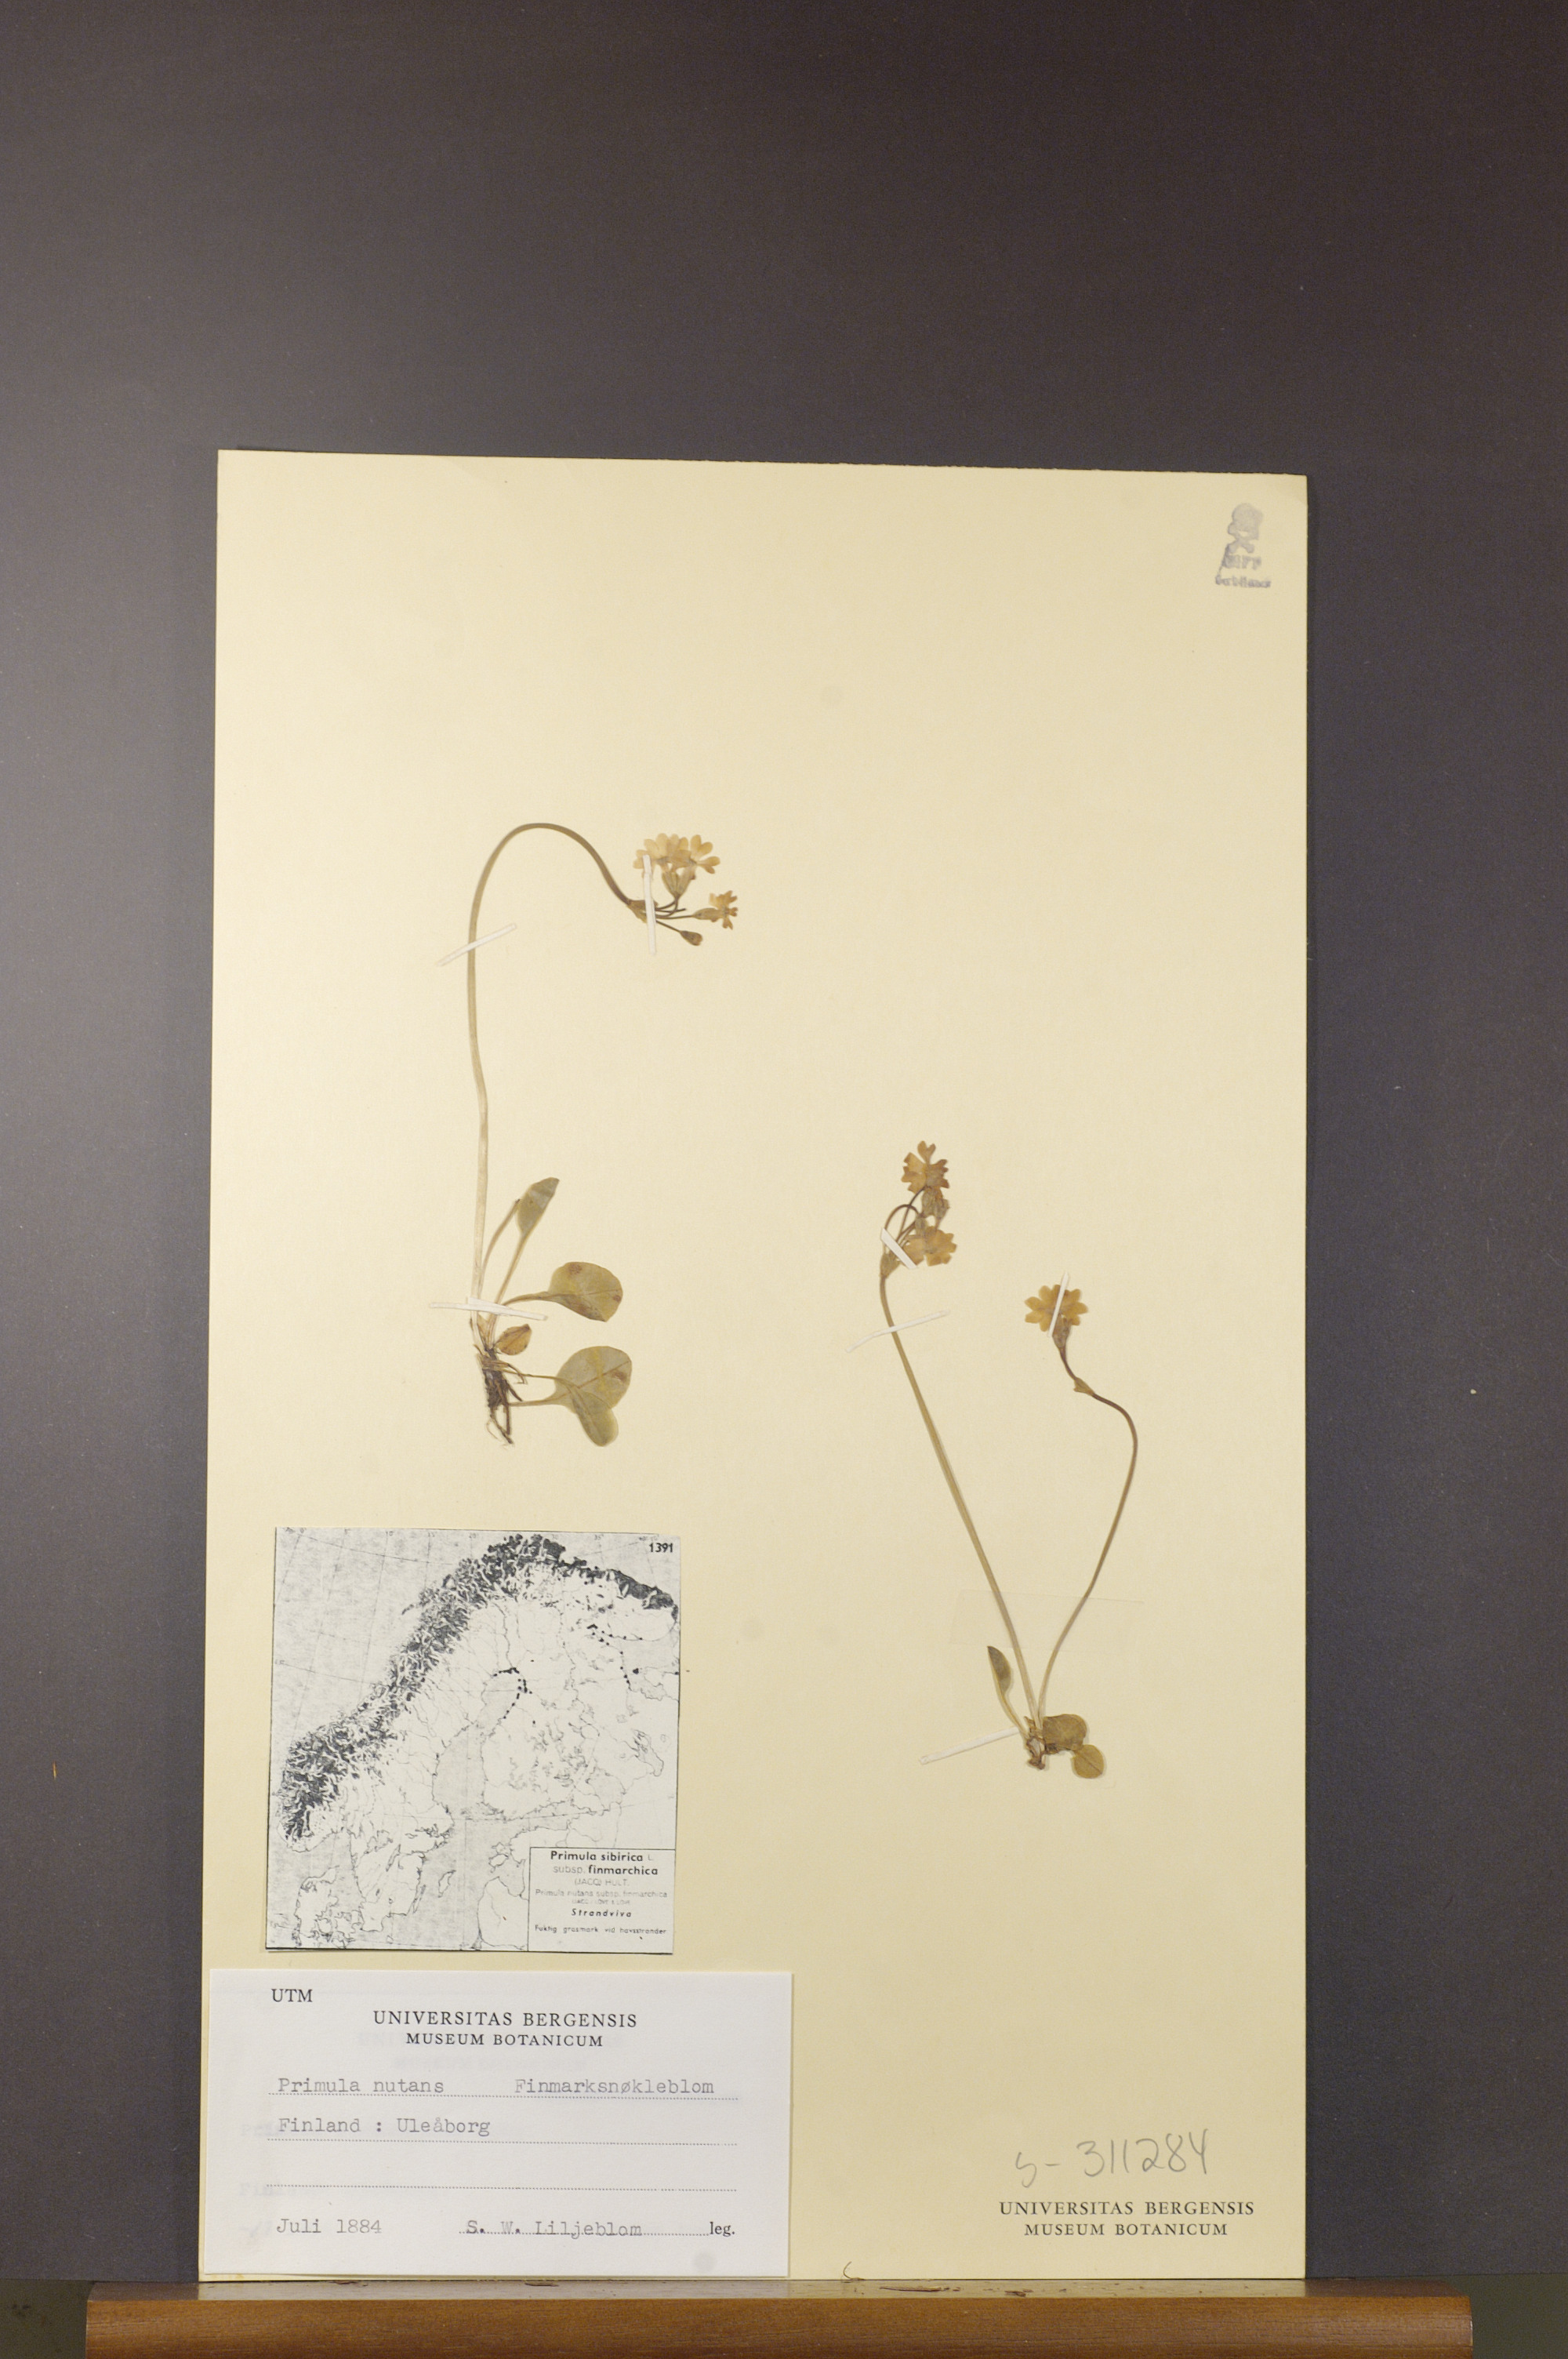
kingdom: Plantae
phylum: Tracheophyta
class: Magnoliopsida
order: Ericales
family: Primulaceae
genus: Primula
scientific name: Primula nutans
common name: Siberian primrose
